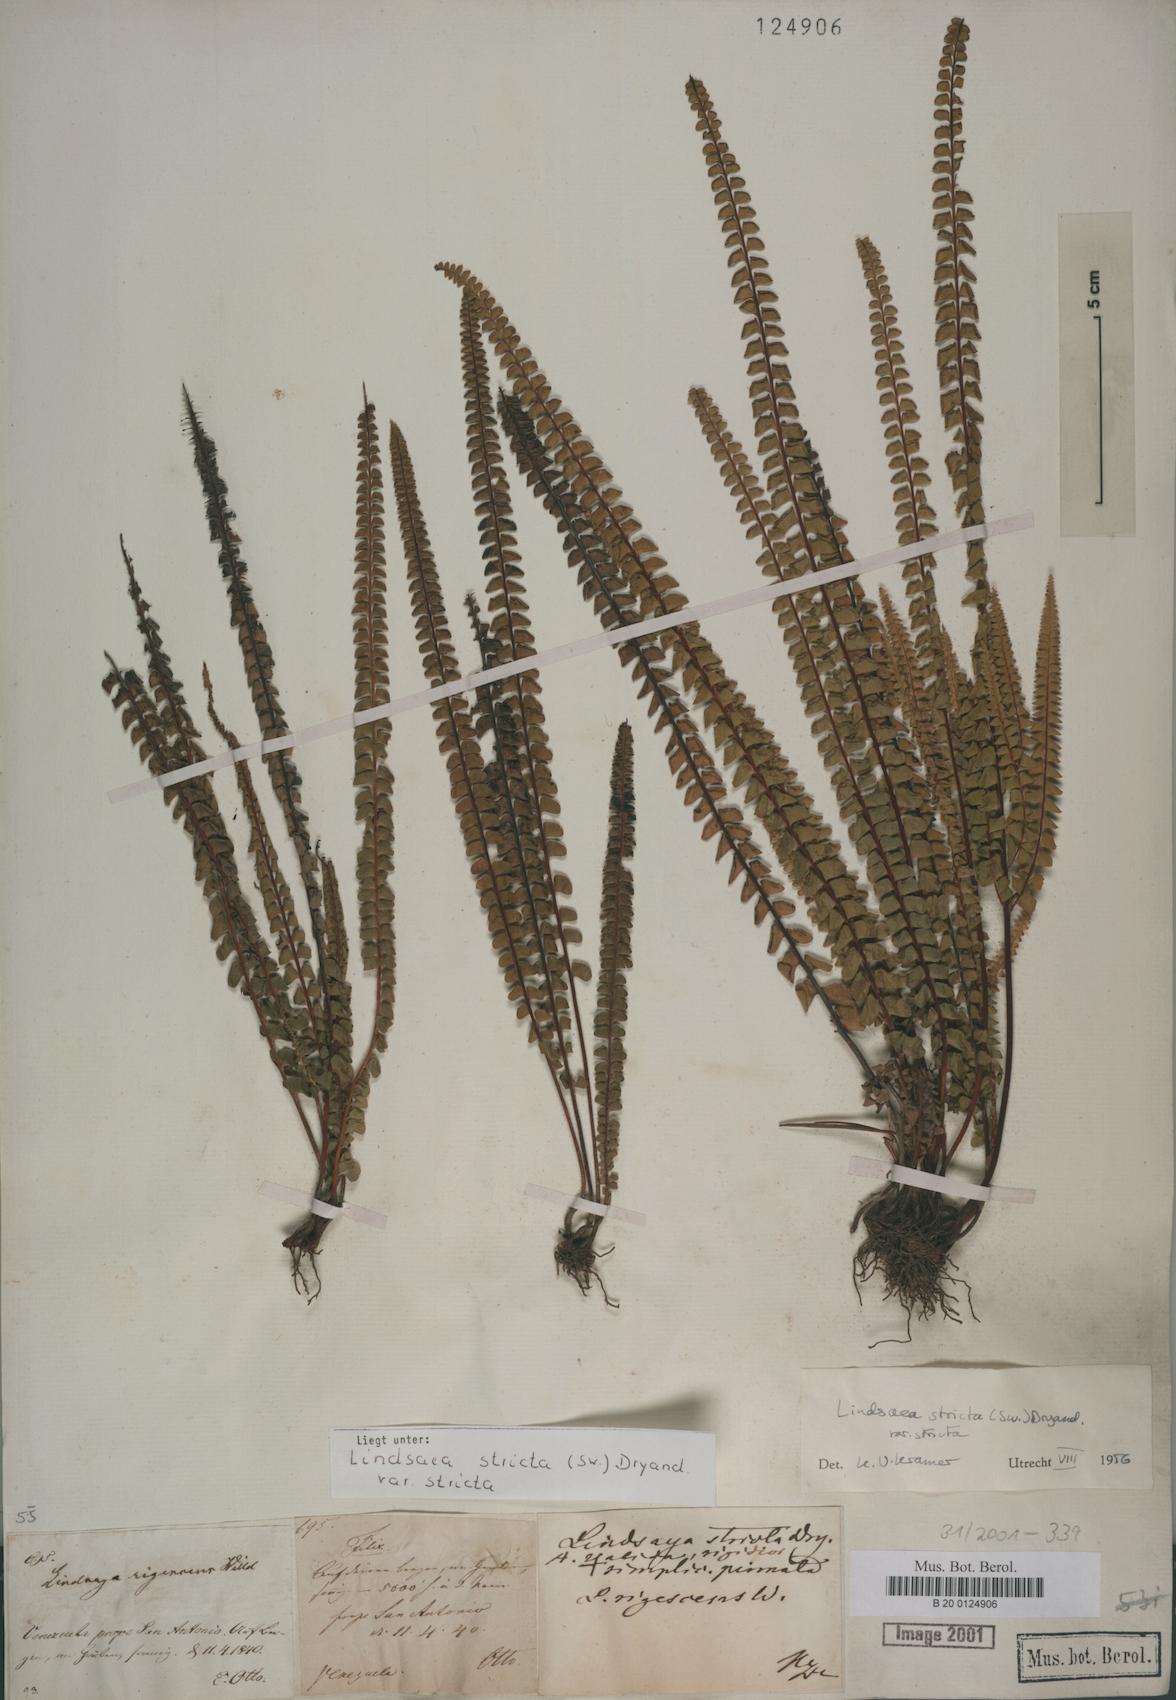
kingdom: Plantae
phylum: Tracheophyta
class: Polypodiopsida
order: Polypodiales
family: Lindsaeaceae
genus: Lindsaea
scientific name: Lindsaea stricta
